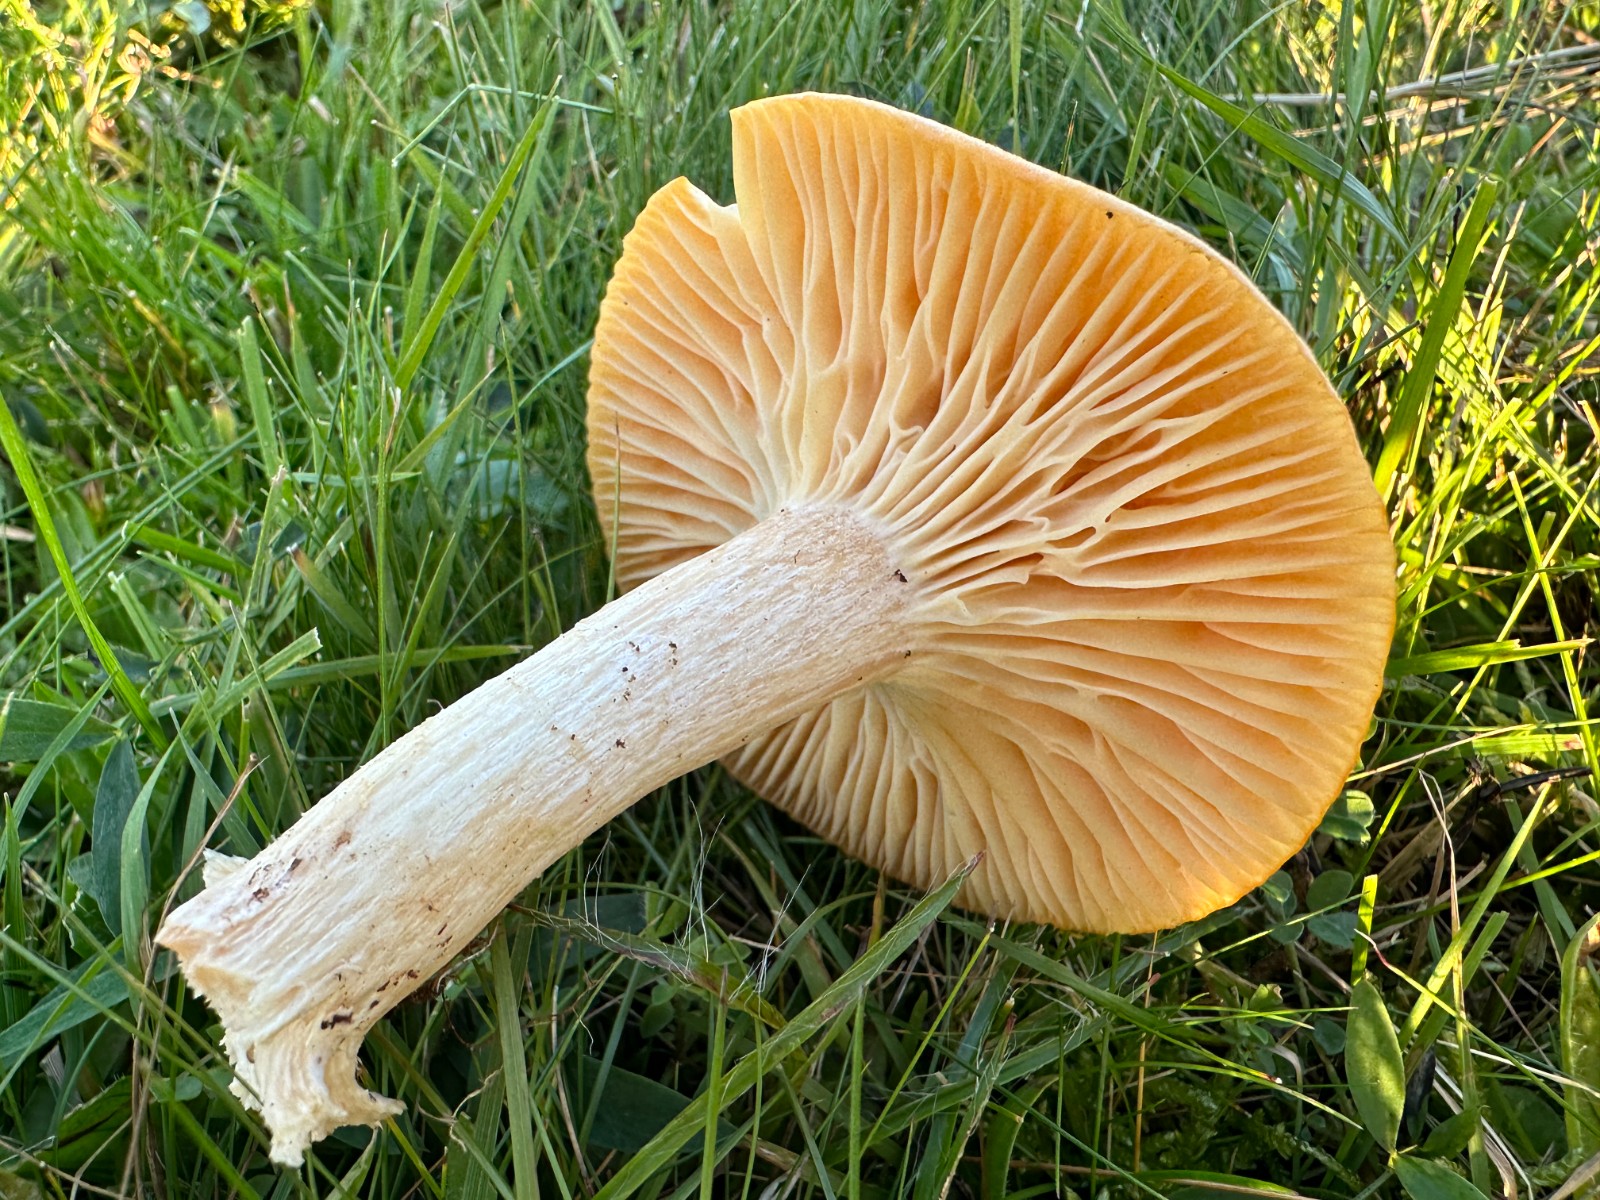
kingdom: Fungi
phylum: Basidiomycota
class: Agaricomycetes
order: Agaricales
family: Hygrophoraceae
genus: Cuphophyllus
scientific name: Cuphophyllus pratensis
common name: eng-vokshat
